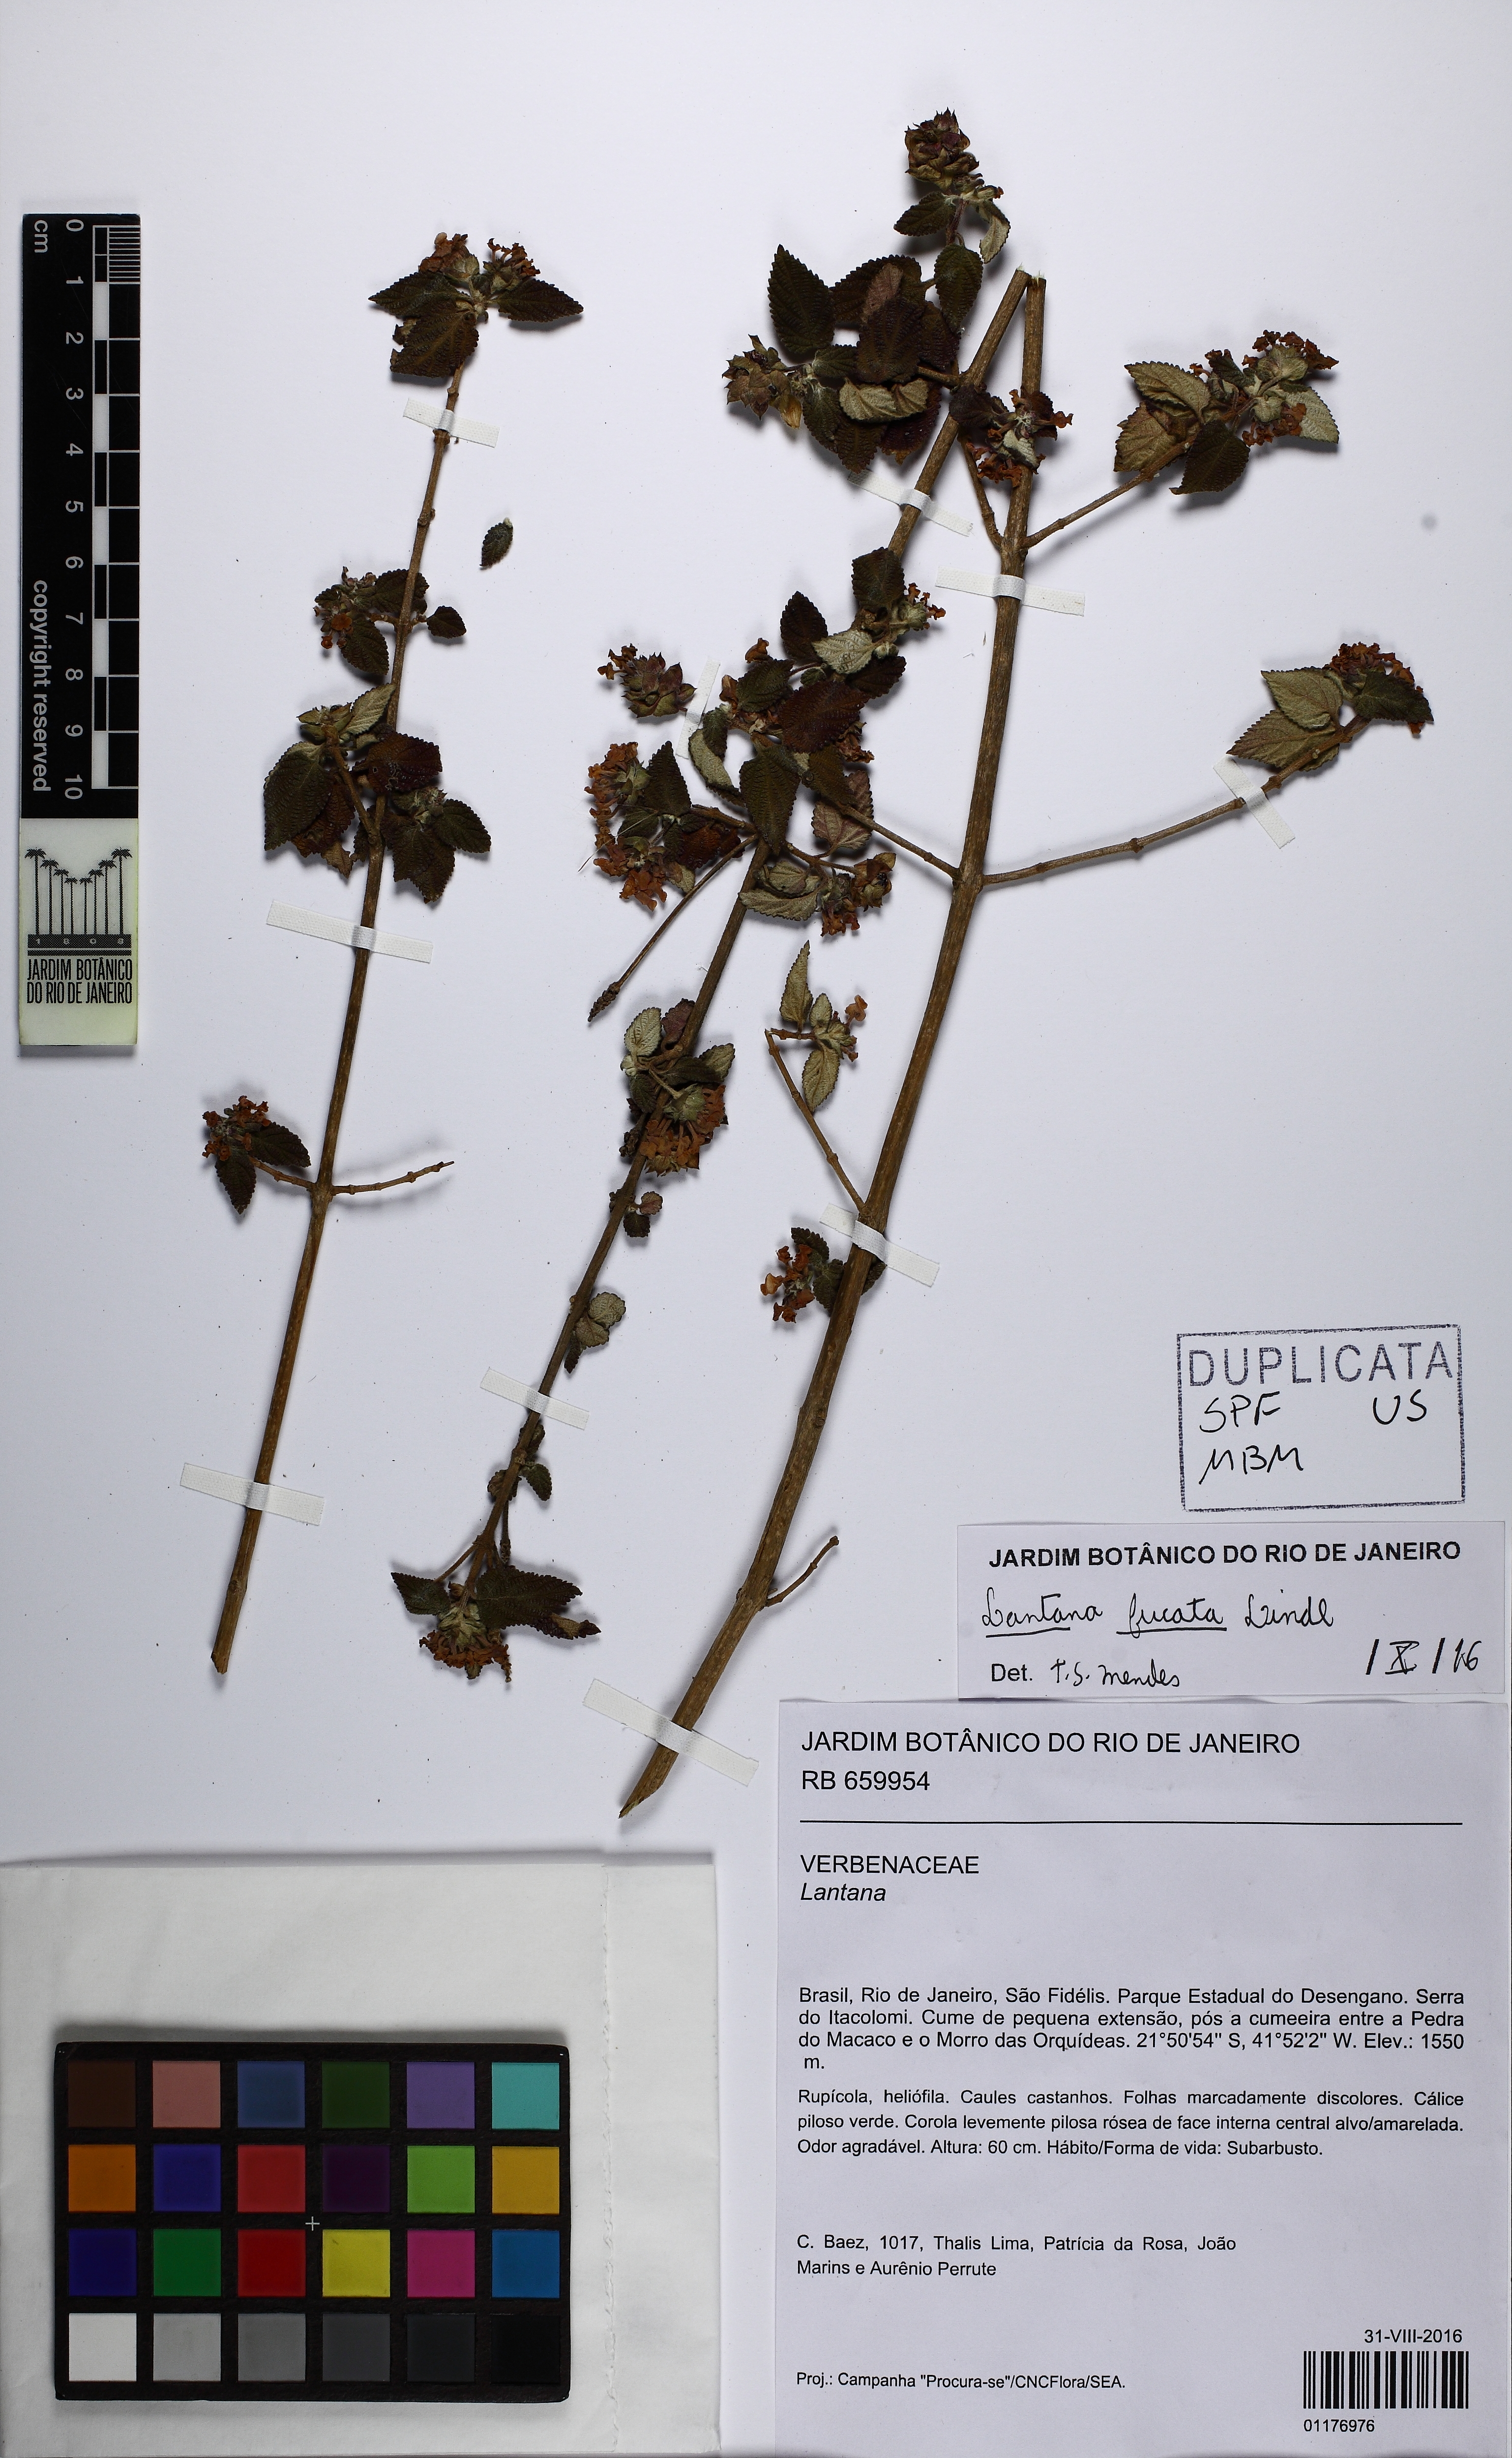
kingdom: Plantae
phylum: Tracheophyta
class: Magnoliopsida
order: Lamiales
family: Verbenaceae
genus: Lantana
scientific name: Lantana fucata
